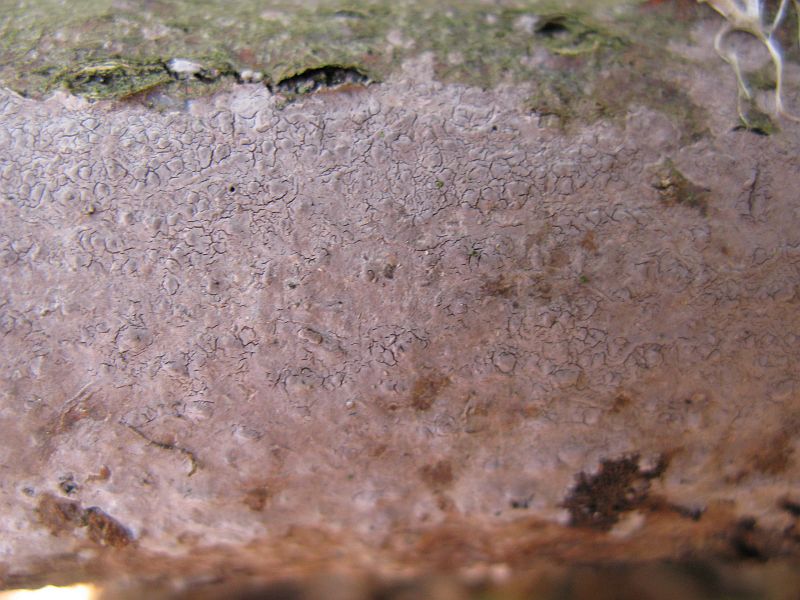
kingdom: Fungi
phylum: Basidiomycota
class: Agaricomycetes
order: Russulales
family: Peniophoraceae
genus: Peniophora
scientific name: Peniophora lycii
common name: grynet voksskind
